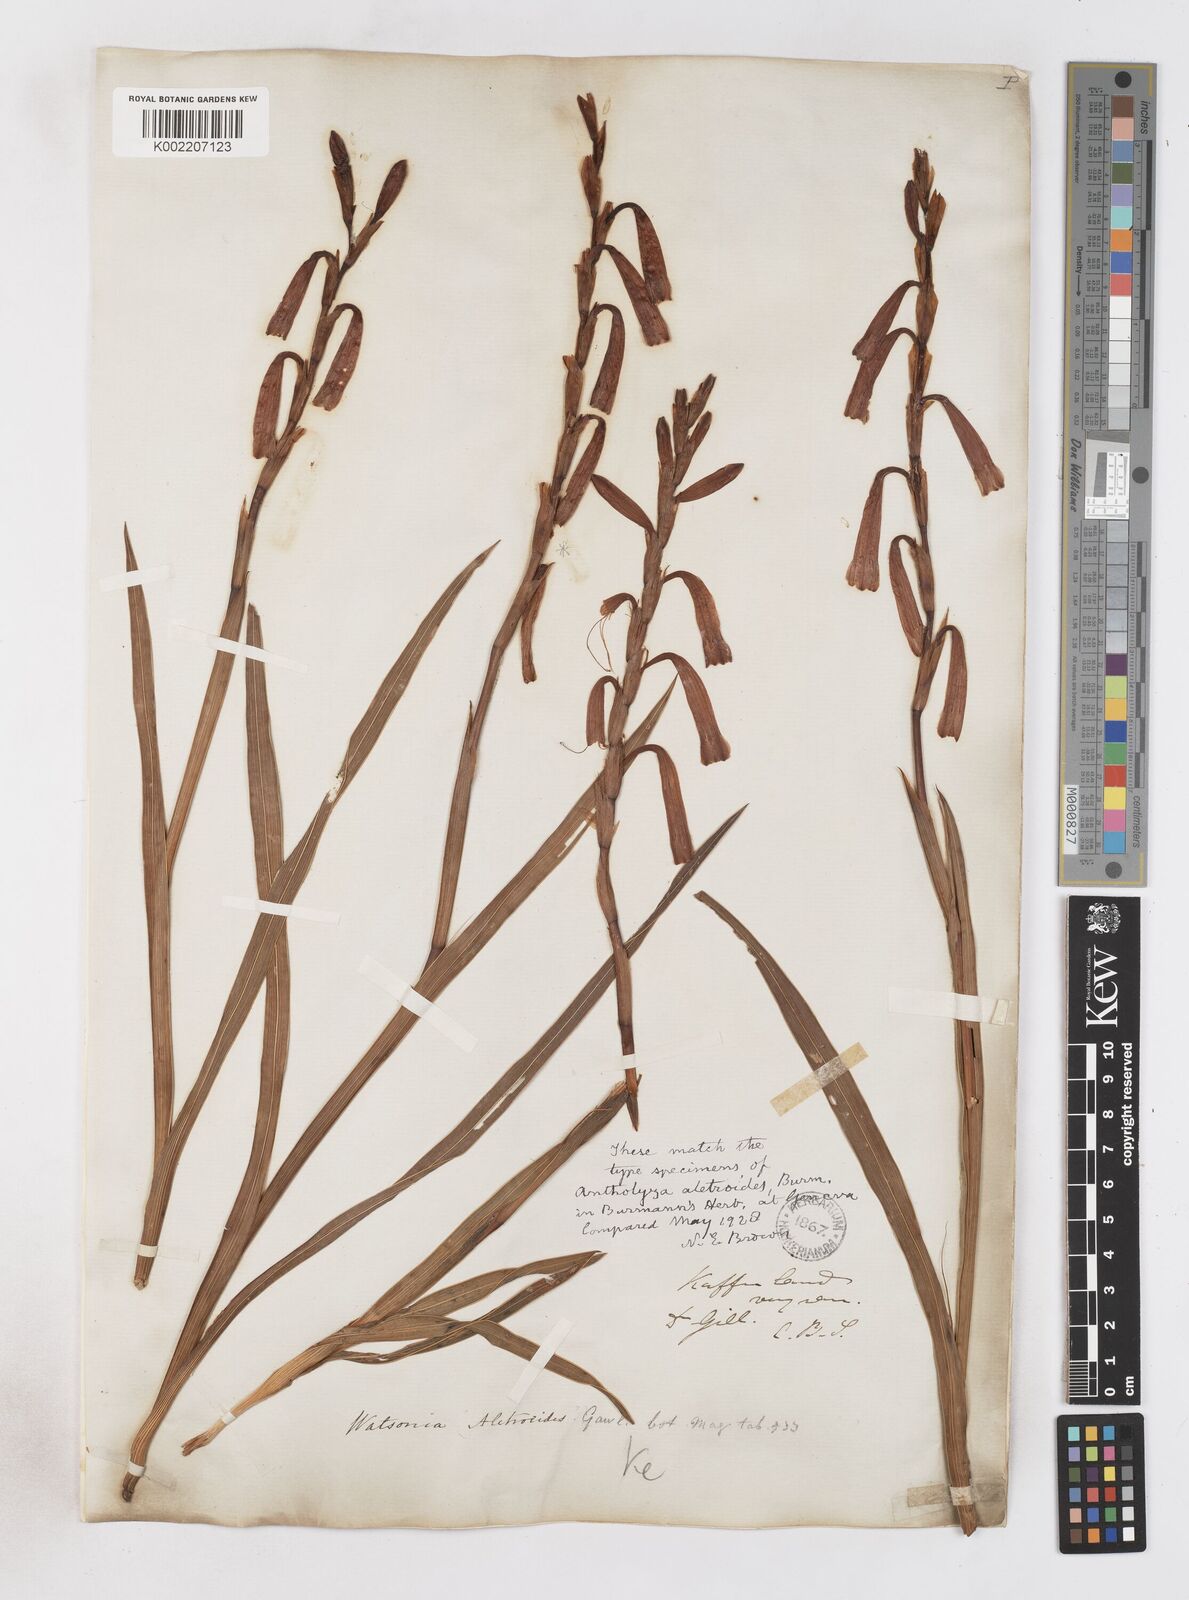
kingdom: Plantae
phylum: Tracheophyta
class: Liliopsida
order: Asparagales
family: Iridaceae
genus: Watsonia
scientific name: Watsonia aletroides
